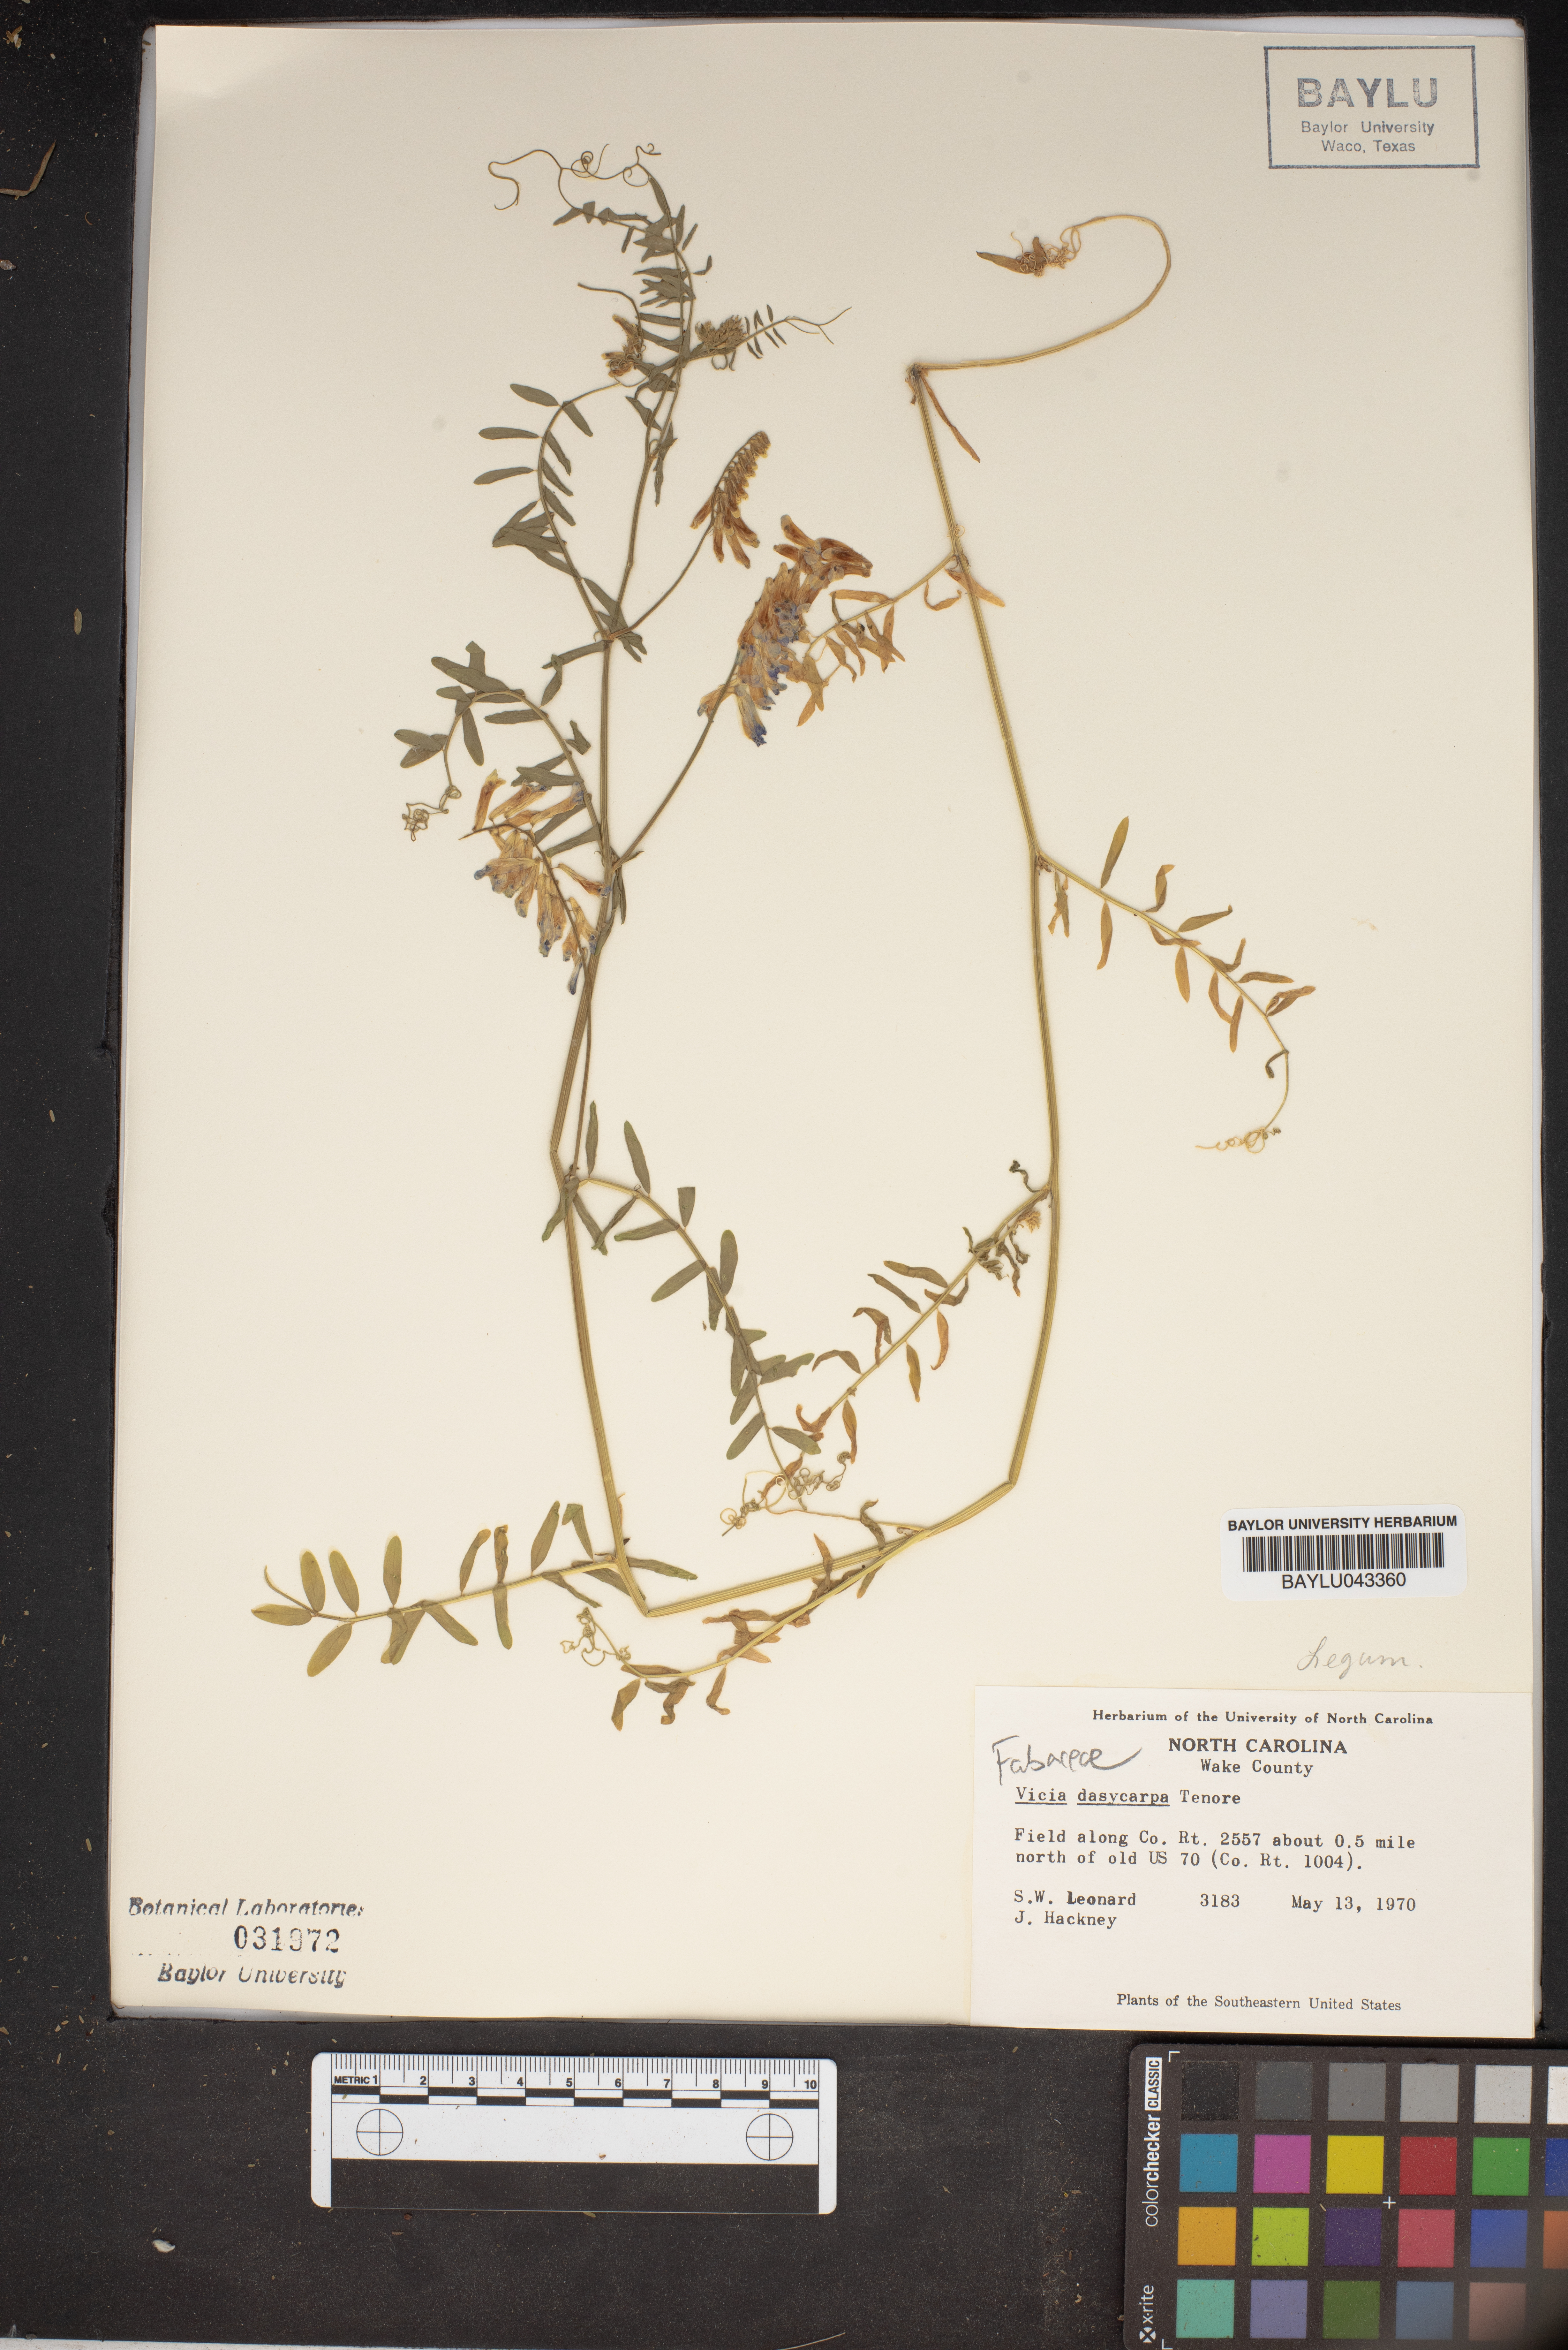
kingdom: Plantae
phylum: Tracheophyta
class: Magnoliopsida
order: Fabales
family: Fabaceae
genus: Vicia
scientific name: Vicia villosa
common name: Fodder vetch
